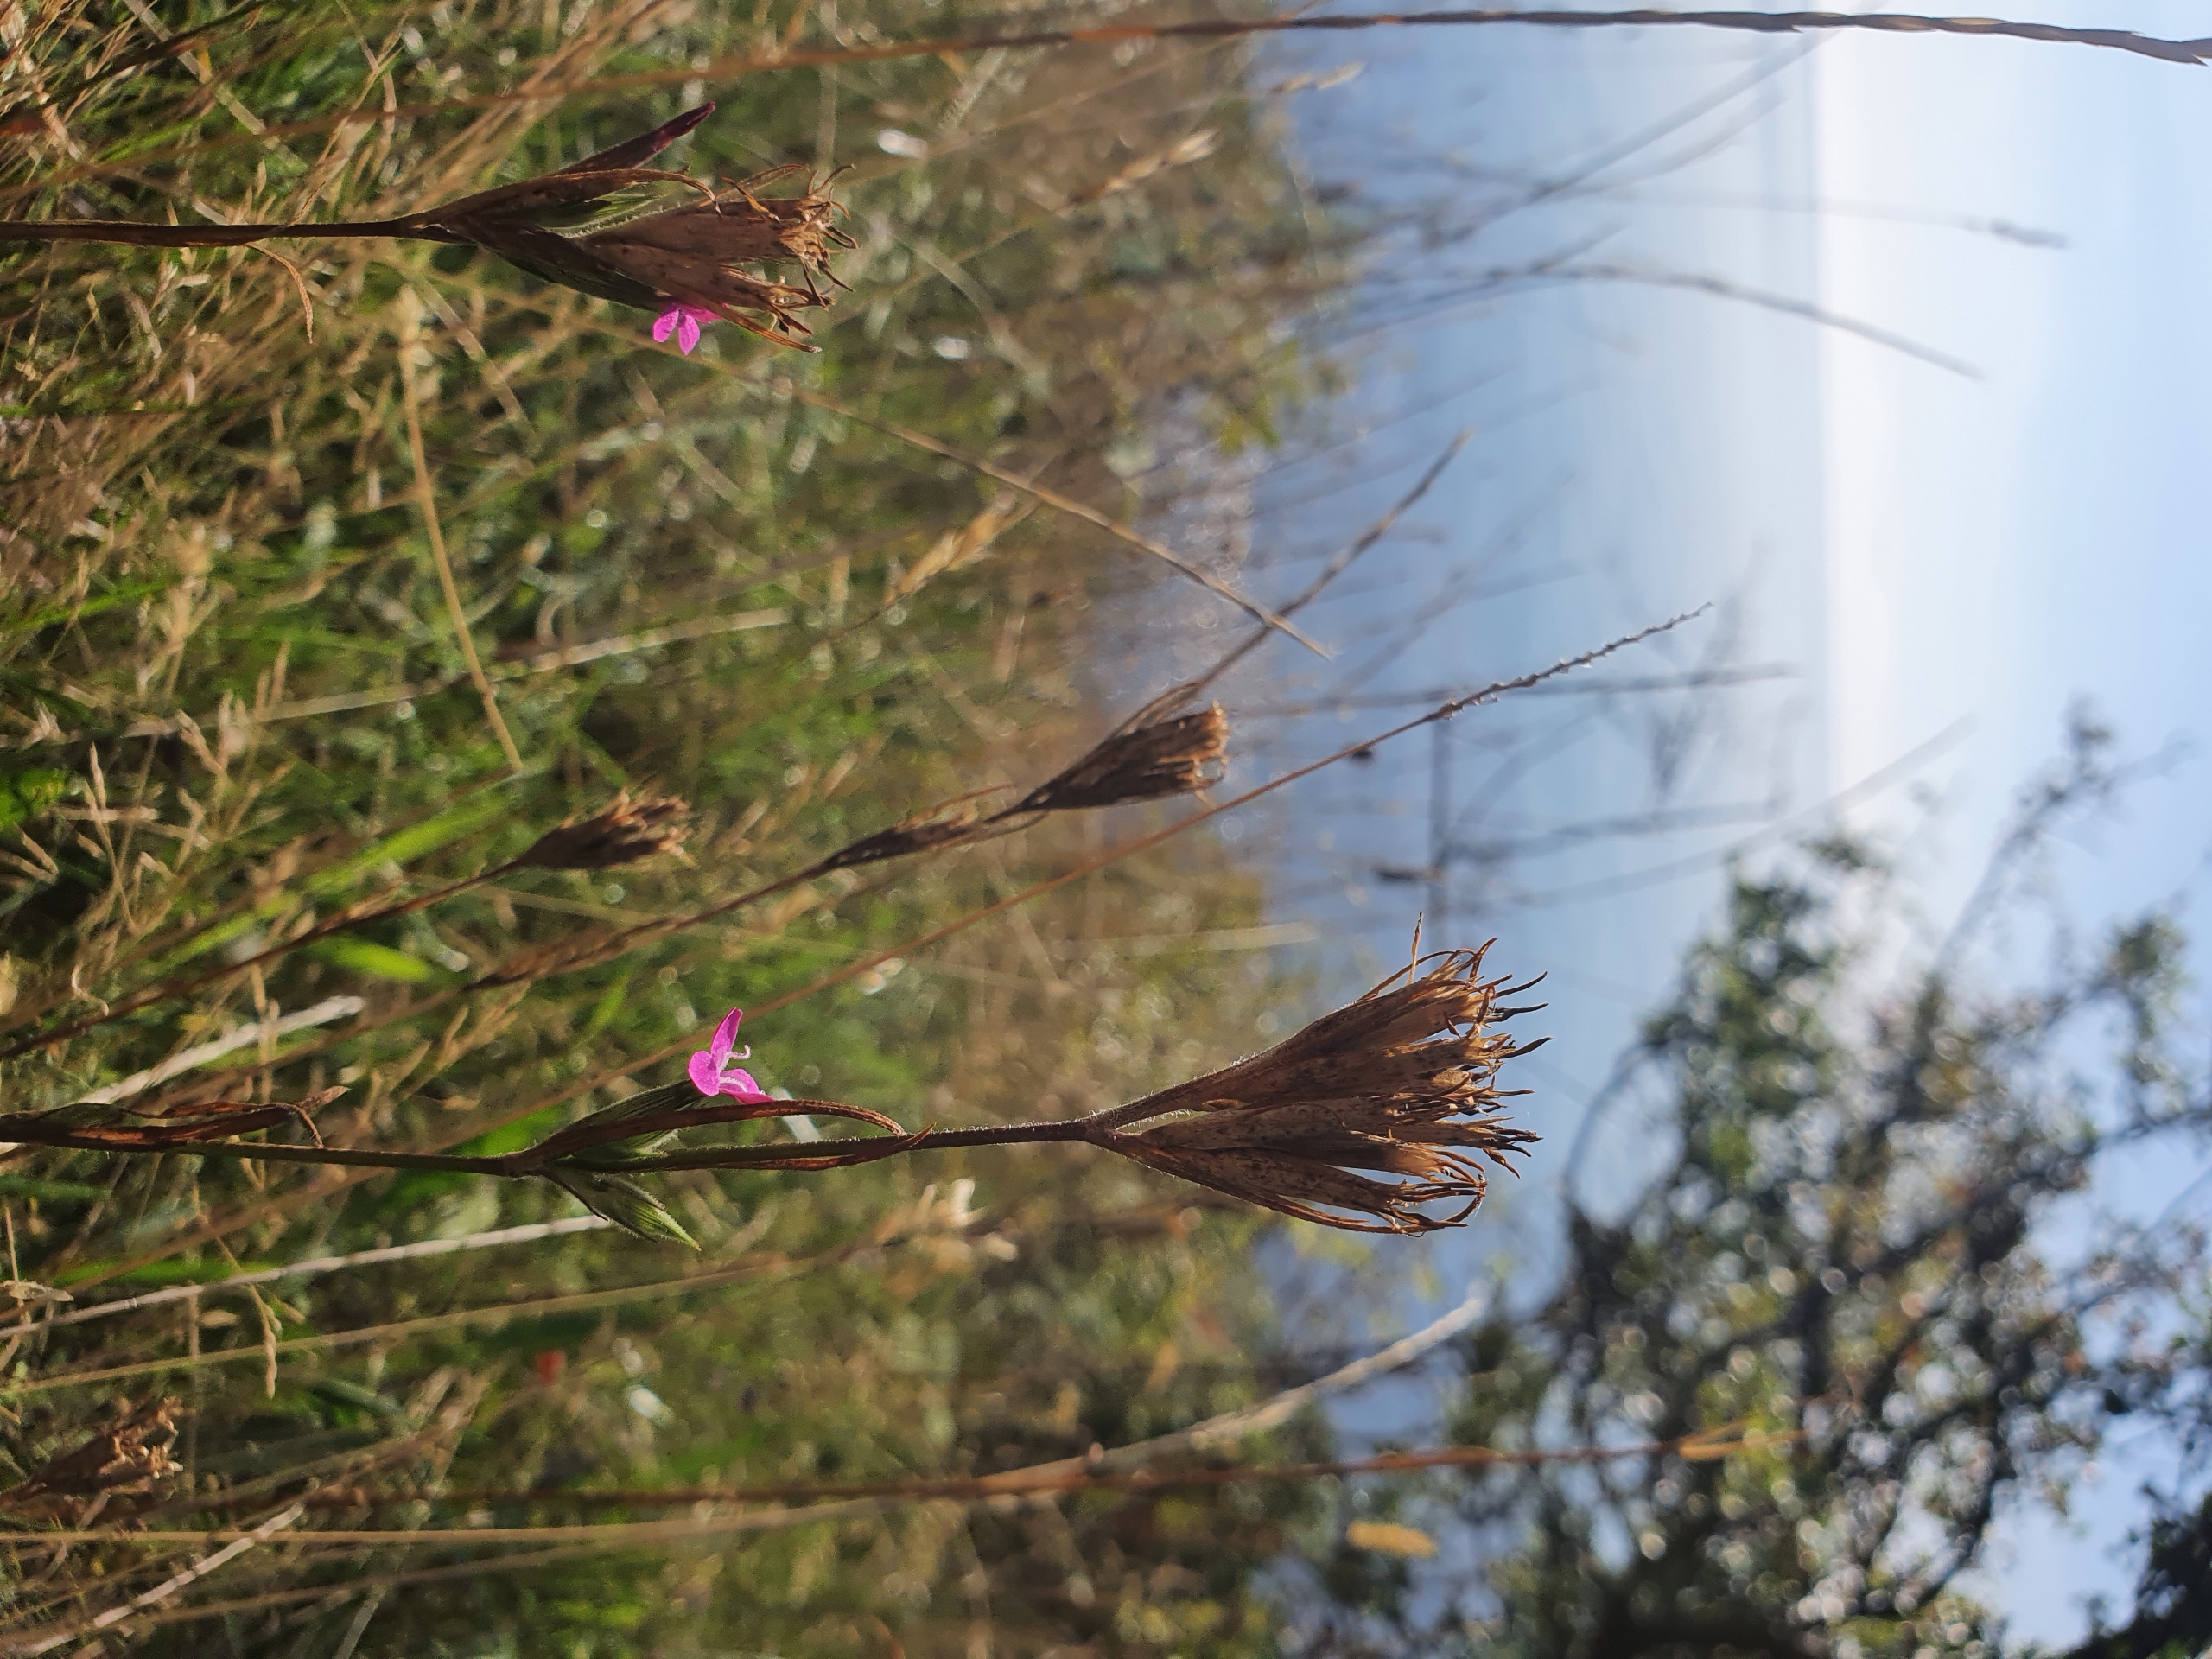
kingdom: Plantae
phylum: Tracheophyta
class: Magnoliopsida
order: Caryophyllales
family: Caryophyllaceae
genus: Dianthus
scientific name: Dianthus armeria
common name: Kost-nellike
